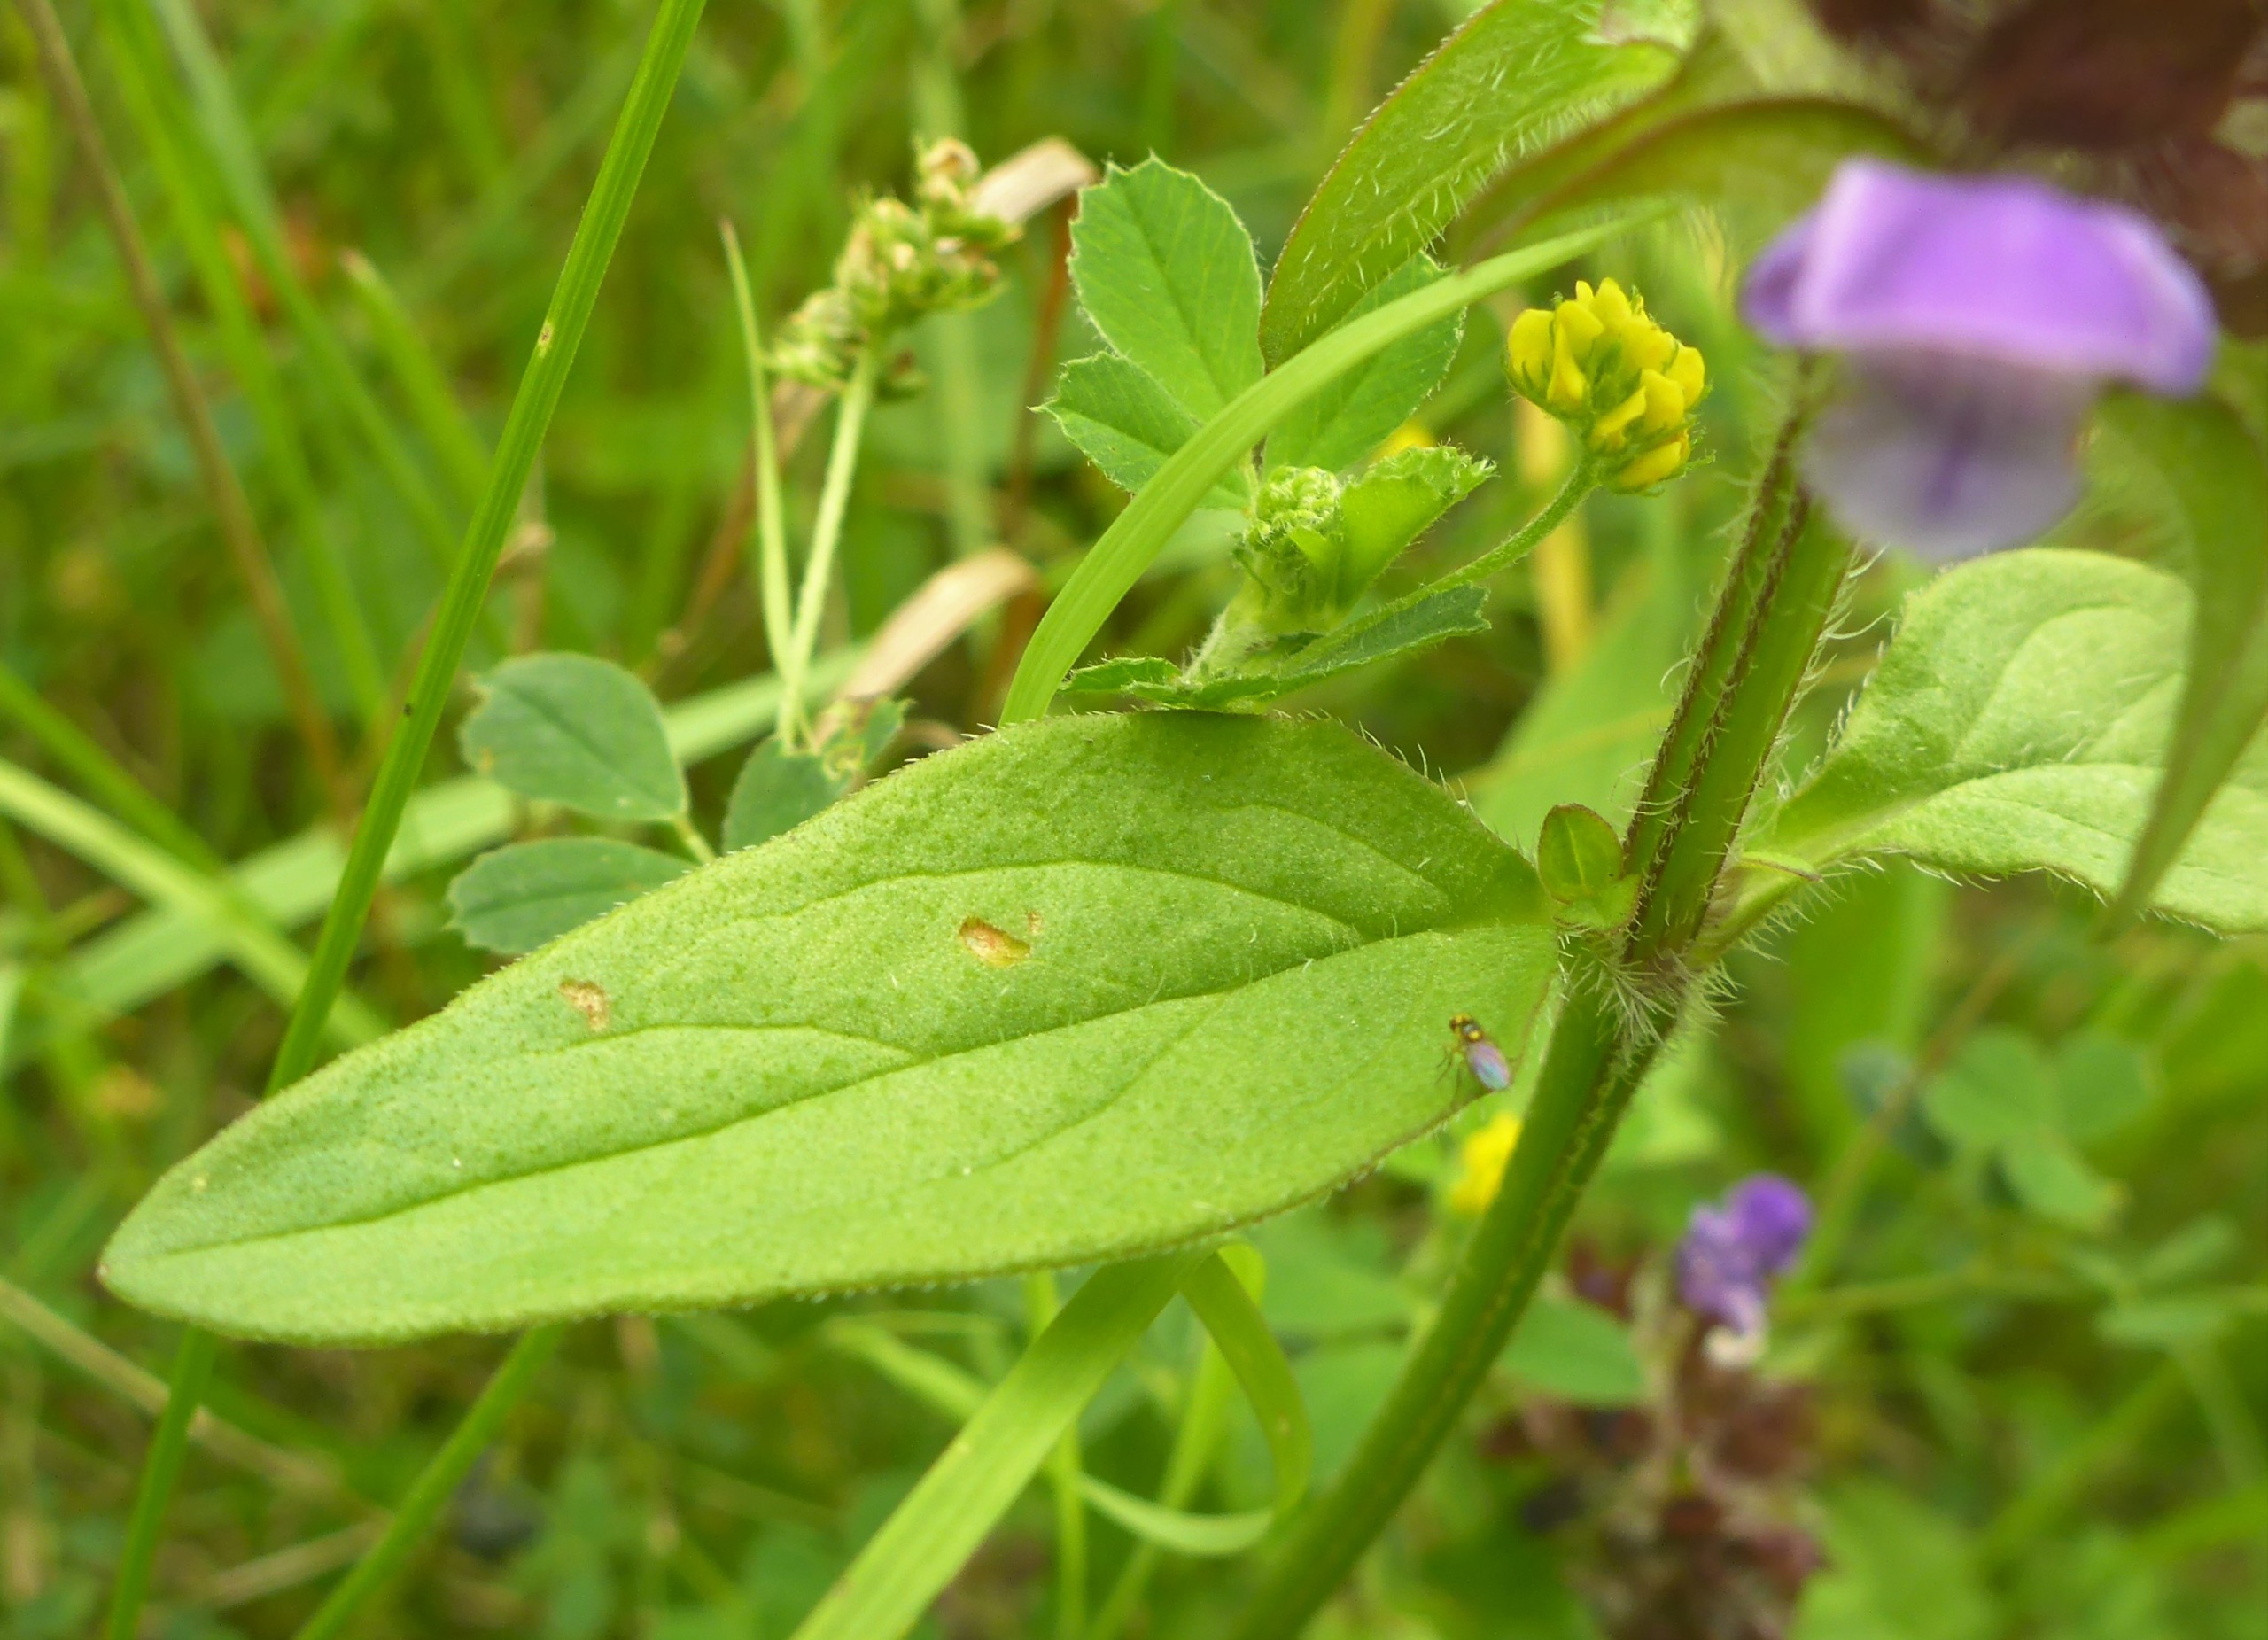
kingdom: Plantae
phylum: Tracheophyta
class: Magnoliopsida
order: Lamiales
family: Lamiaceae
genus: Prunella
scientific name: Prunella vulgaris
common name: Almindelig brunelle
